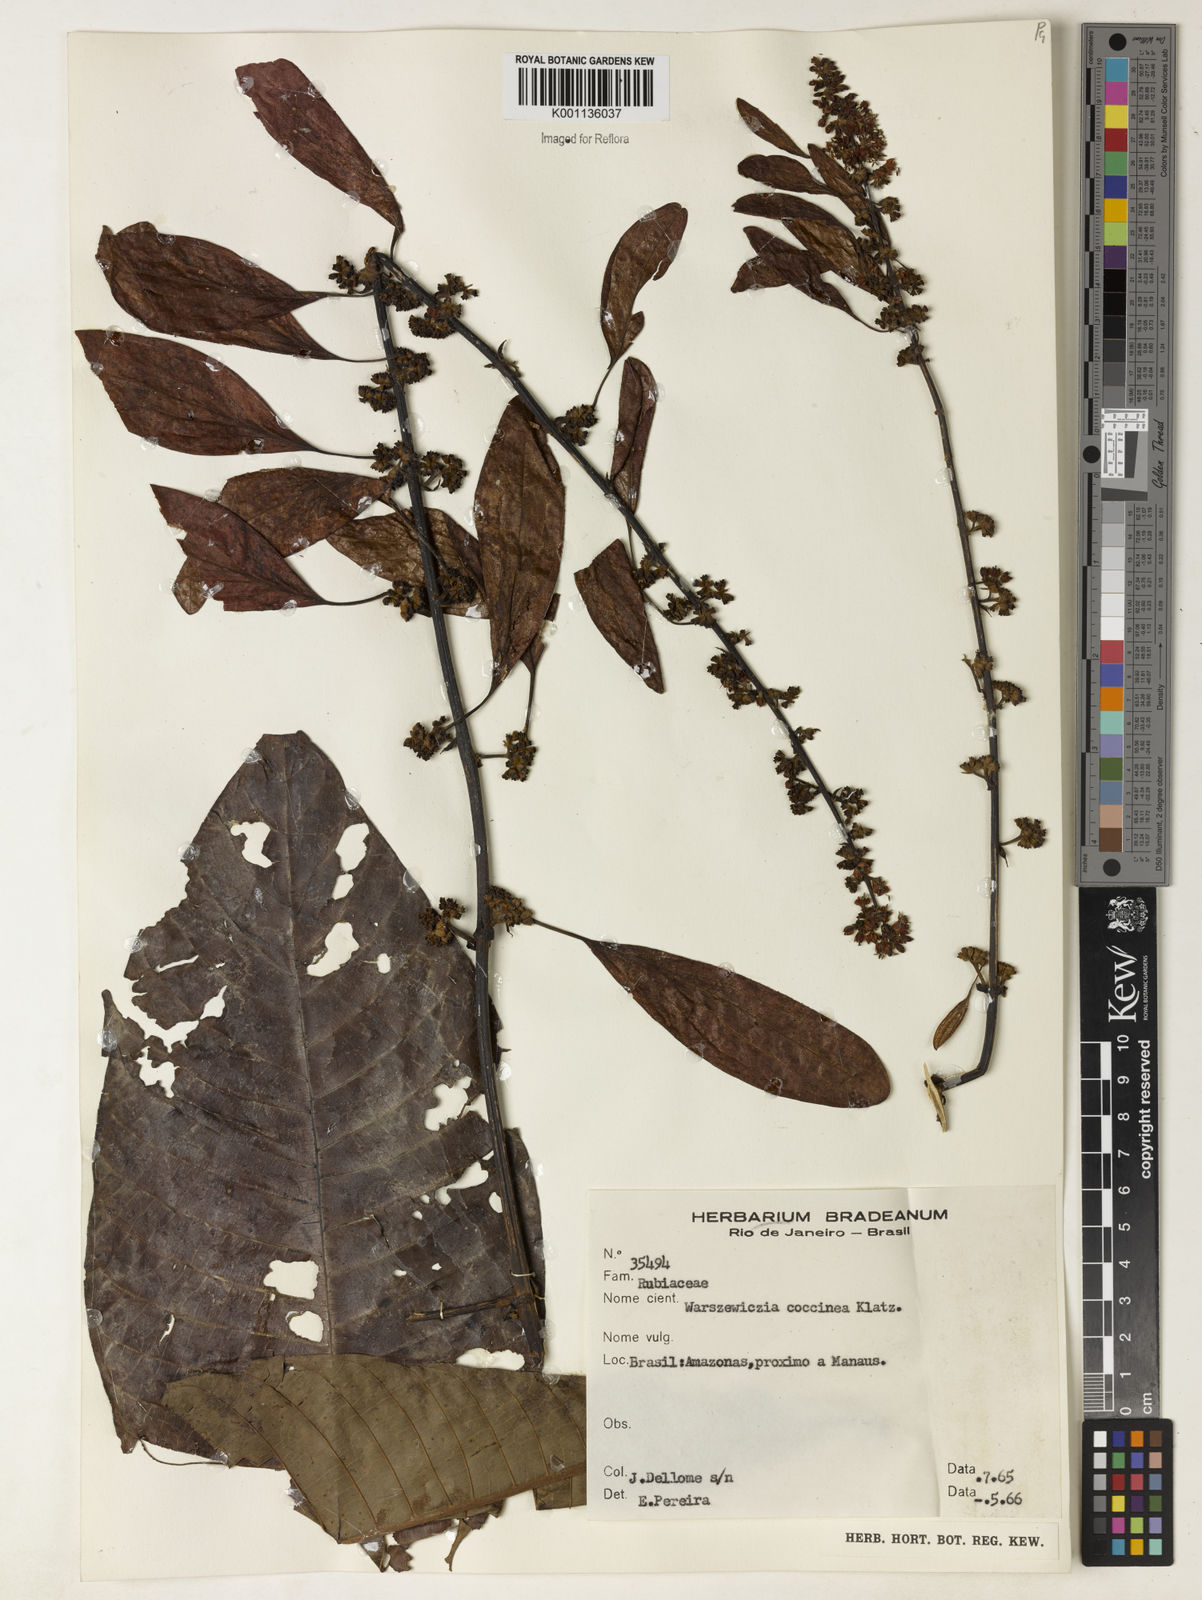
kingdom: Plantae
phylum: Tracheophyta
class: Magnoliopsida
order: Gentianales
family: Rubiaceae
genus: Warszewiczia
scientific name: Warszewiczia coccinea
